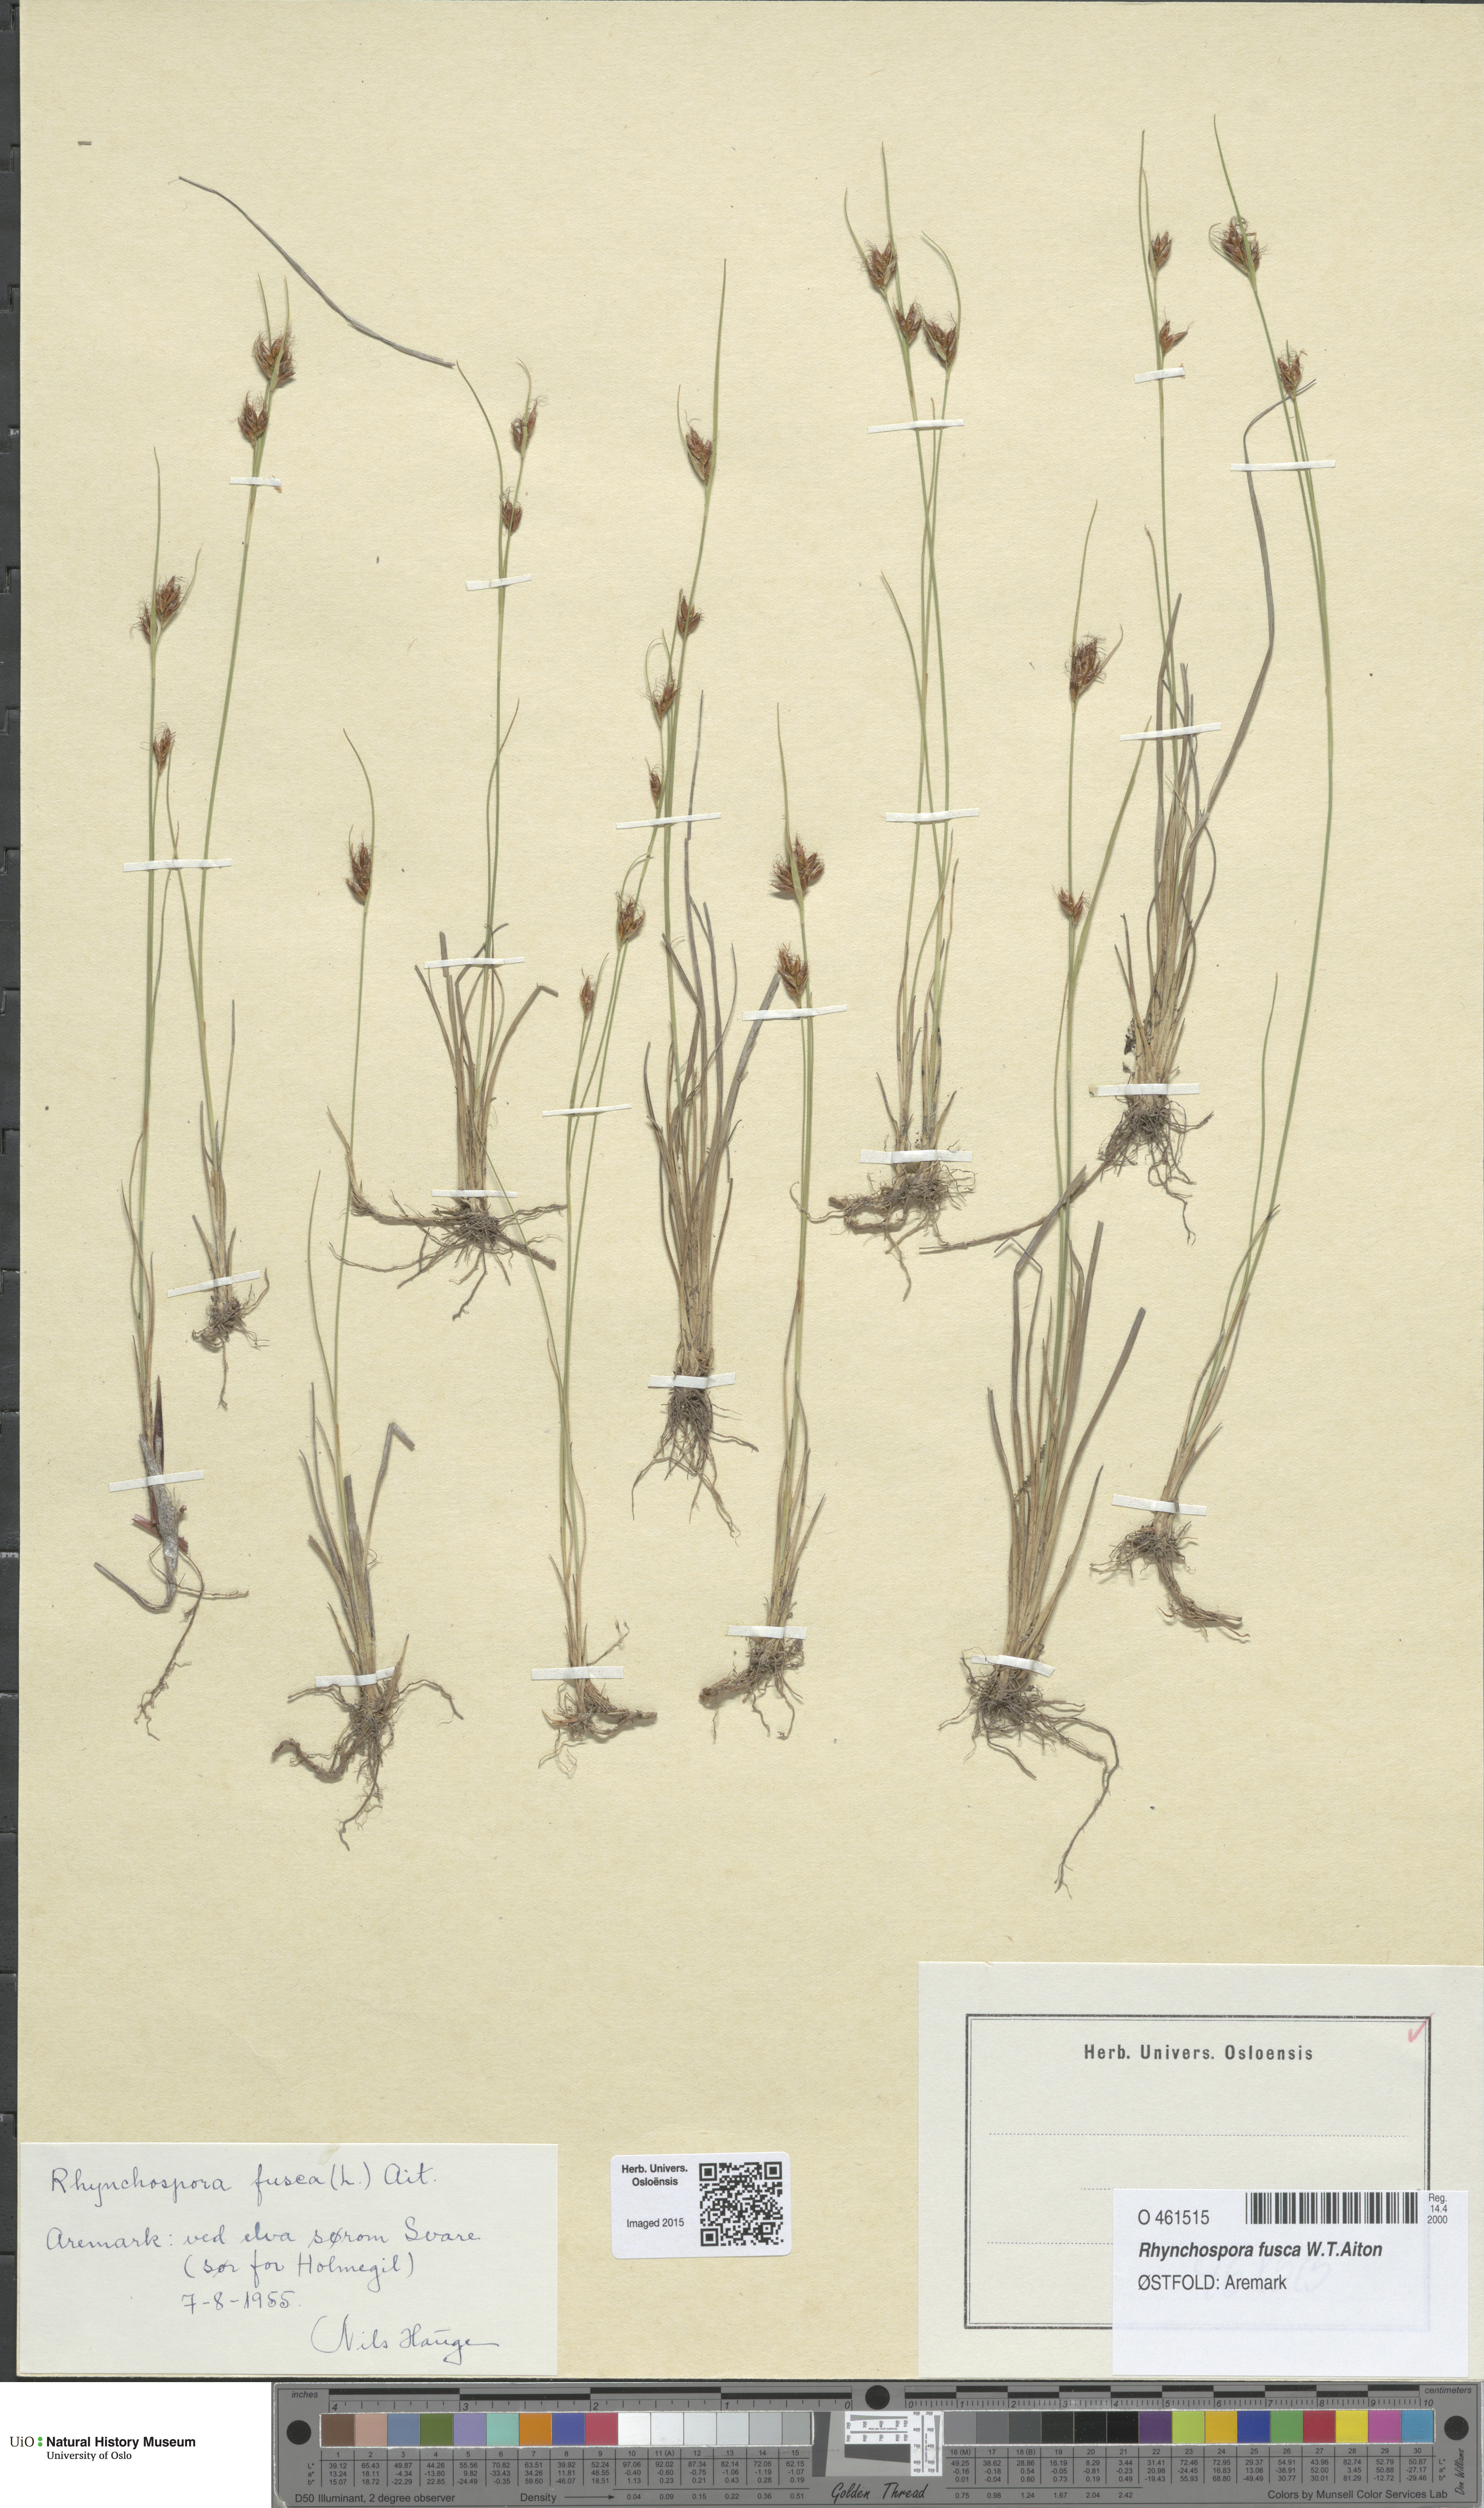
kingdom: Plantae
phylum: Tracheophyta
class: Liliopsida
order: Poales
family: Cyperaceae
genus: Rhynchospora
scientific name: Rhynchospora fusca
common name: Brown beak-sedge
